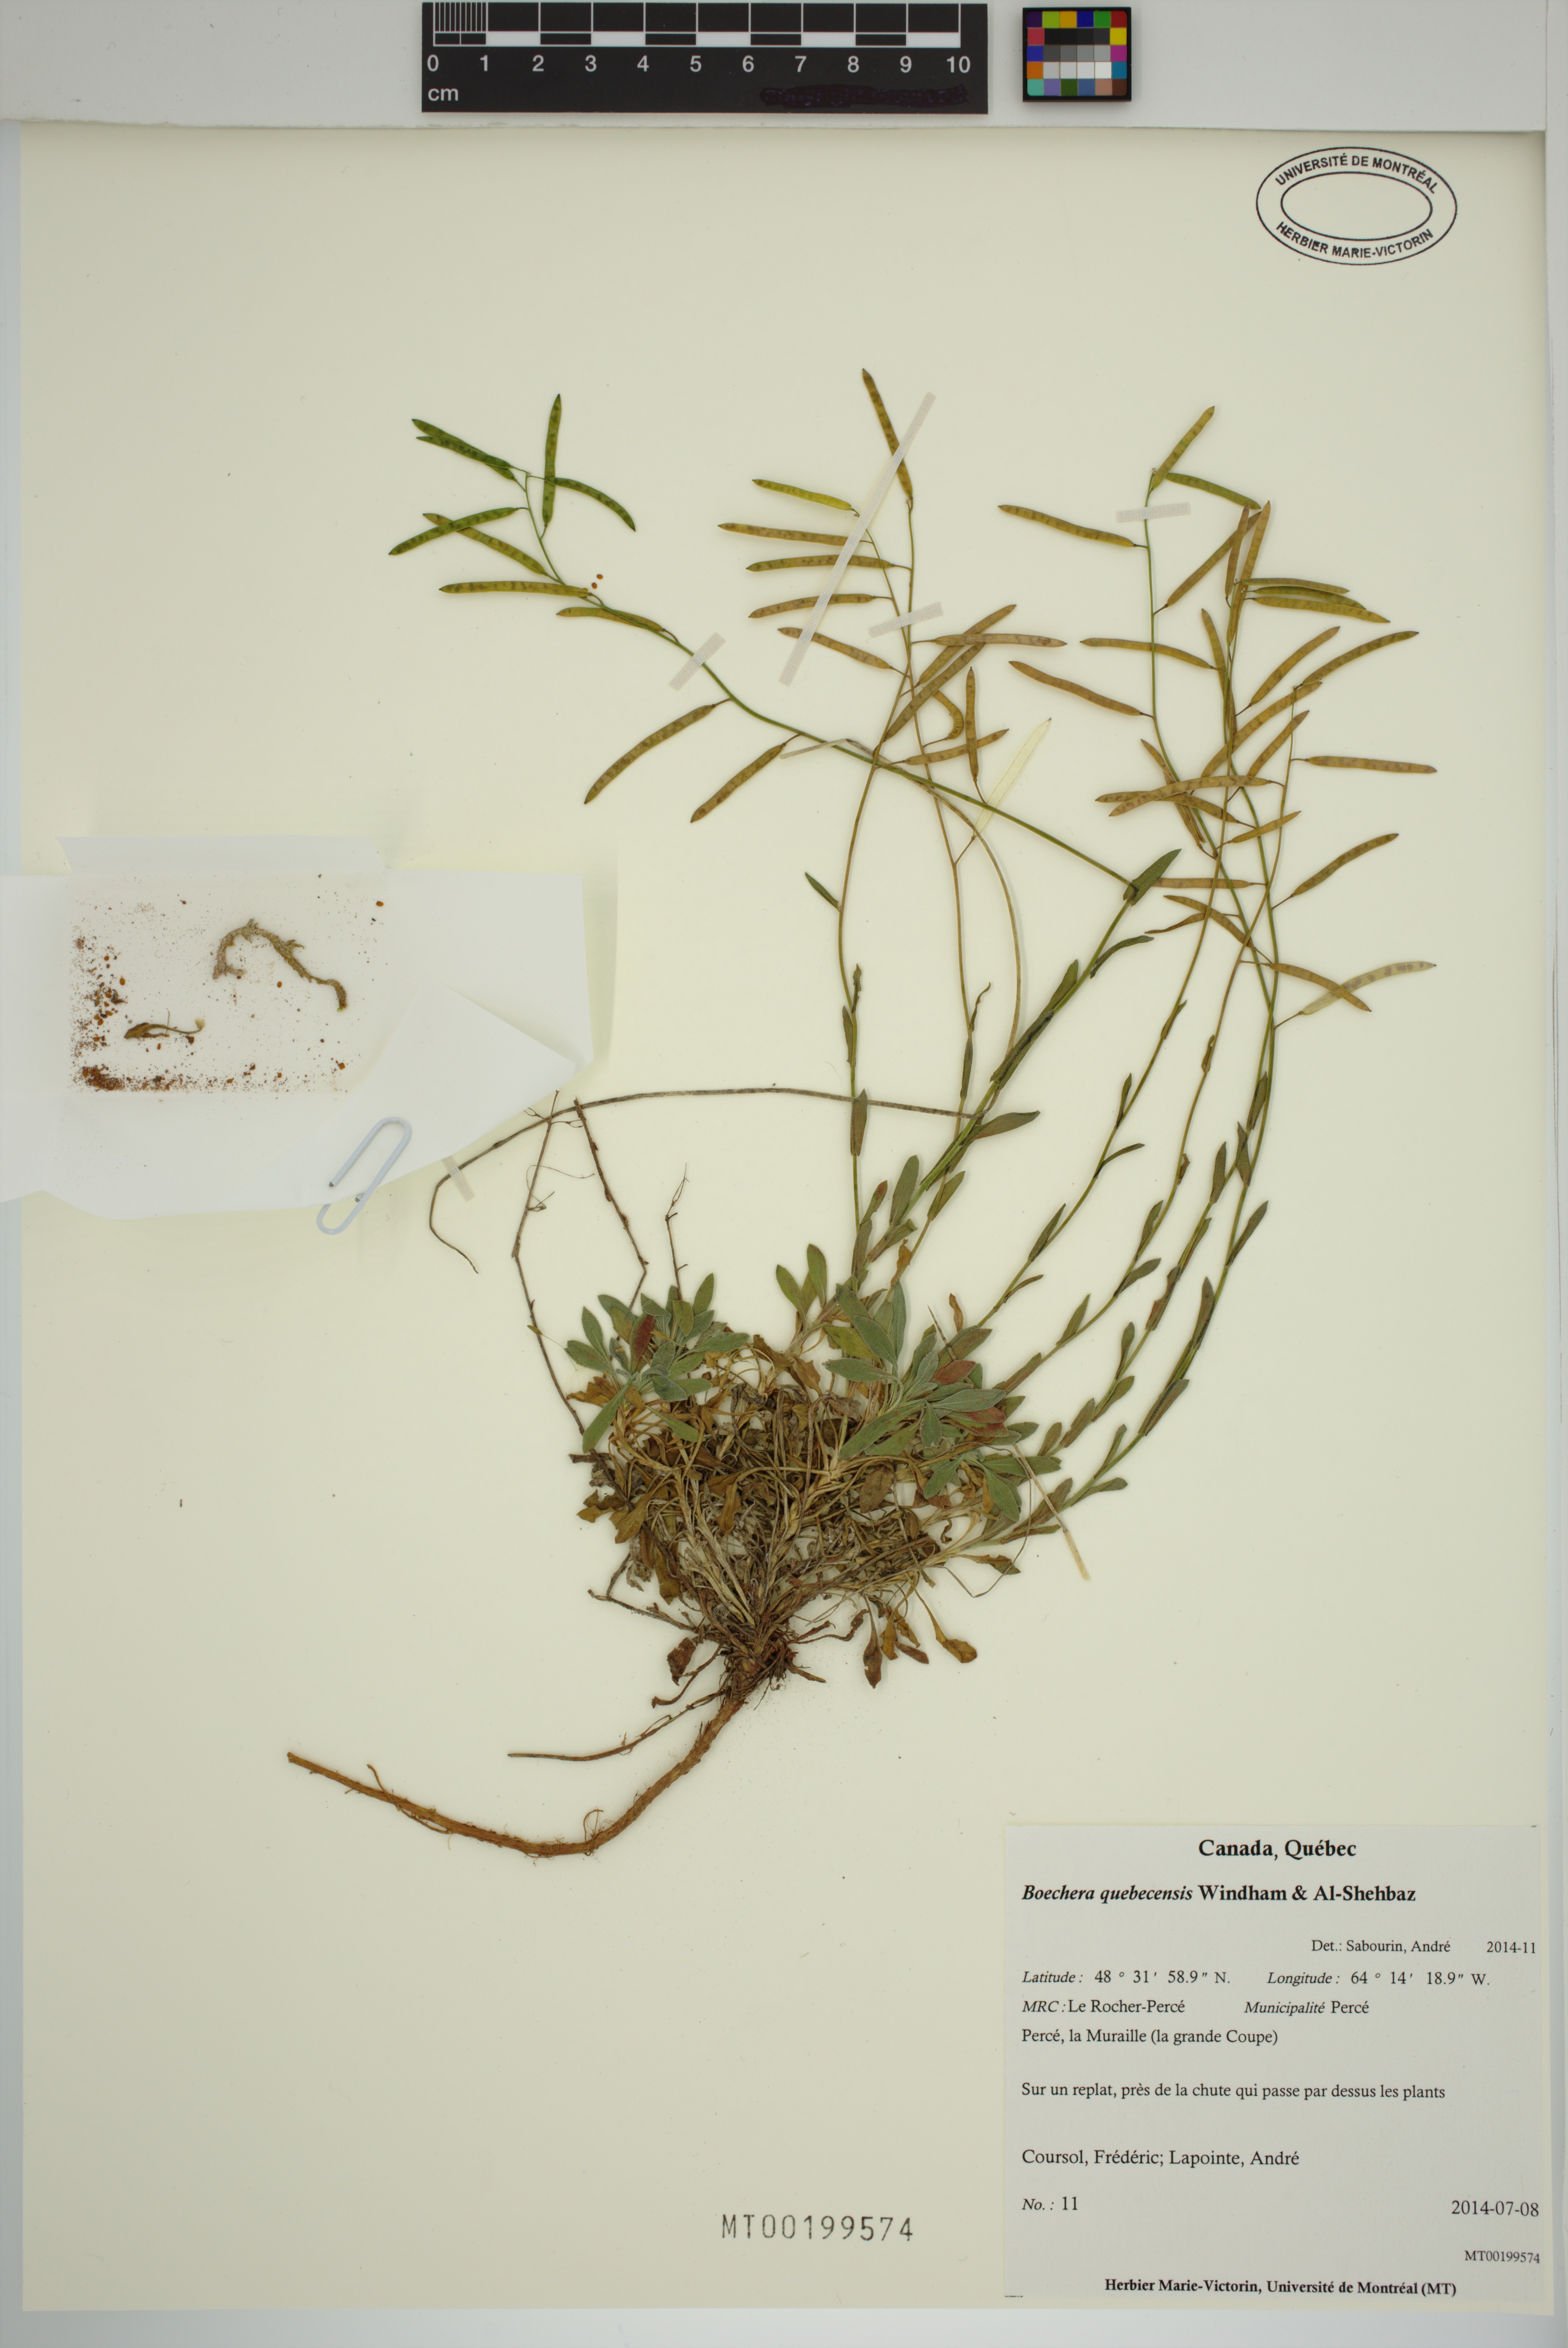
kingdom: Plantae
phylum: Tracheophyta
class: Magnoliopsida
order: Brassicales
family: Brassicaceae
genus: Boechera
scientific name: Boechera quebecensis
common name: Quebec rockcress
